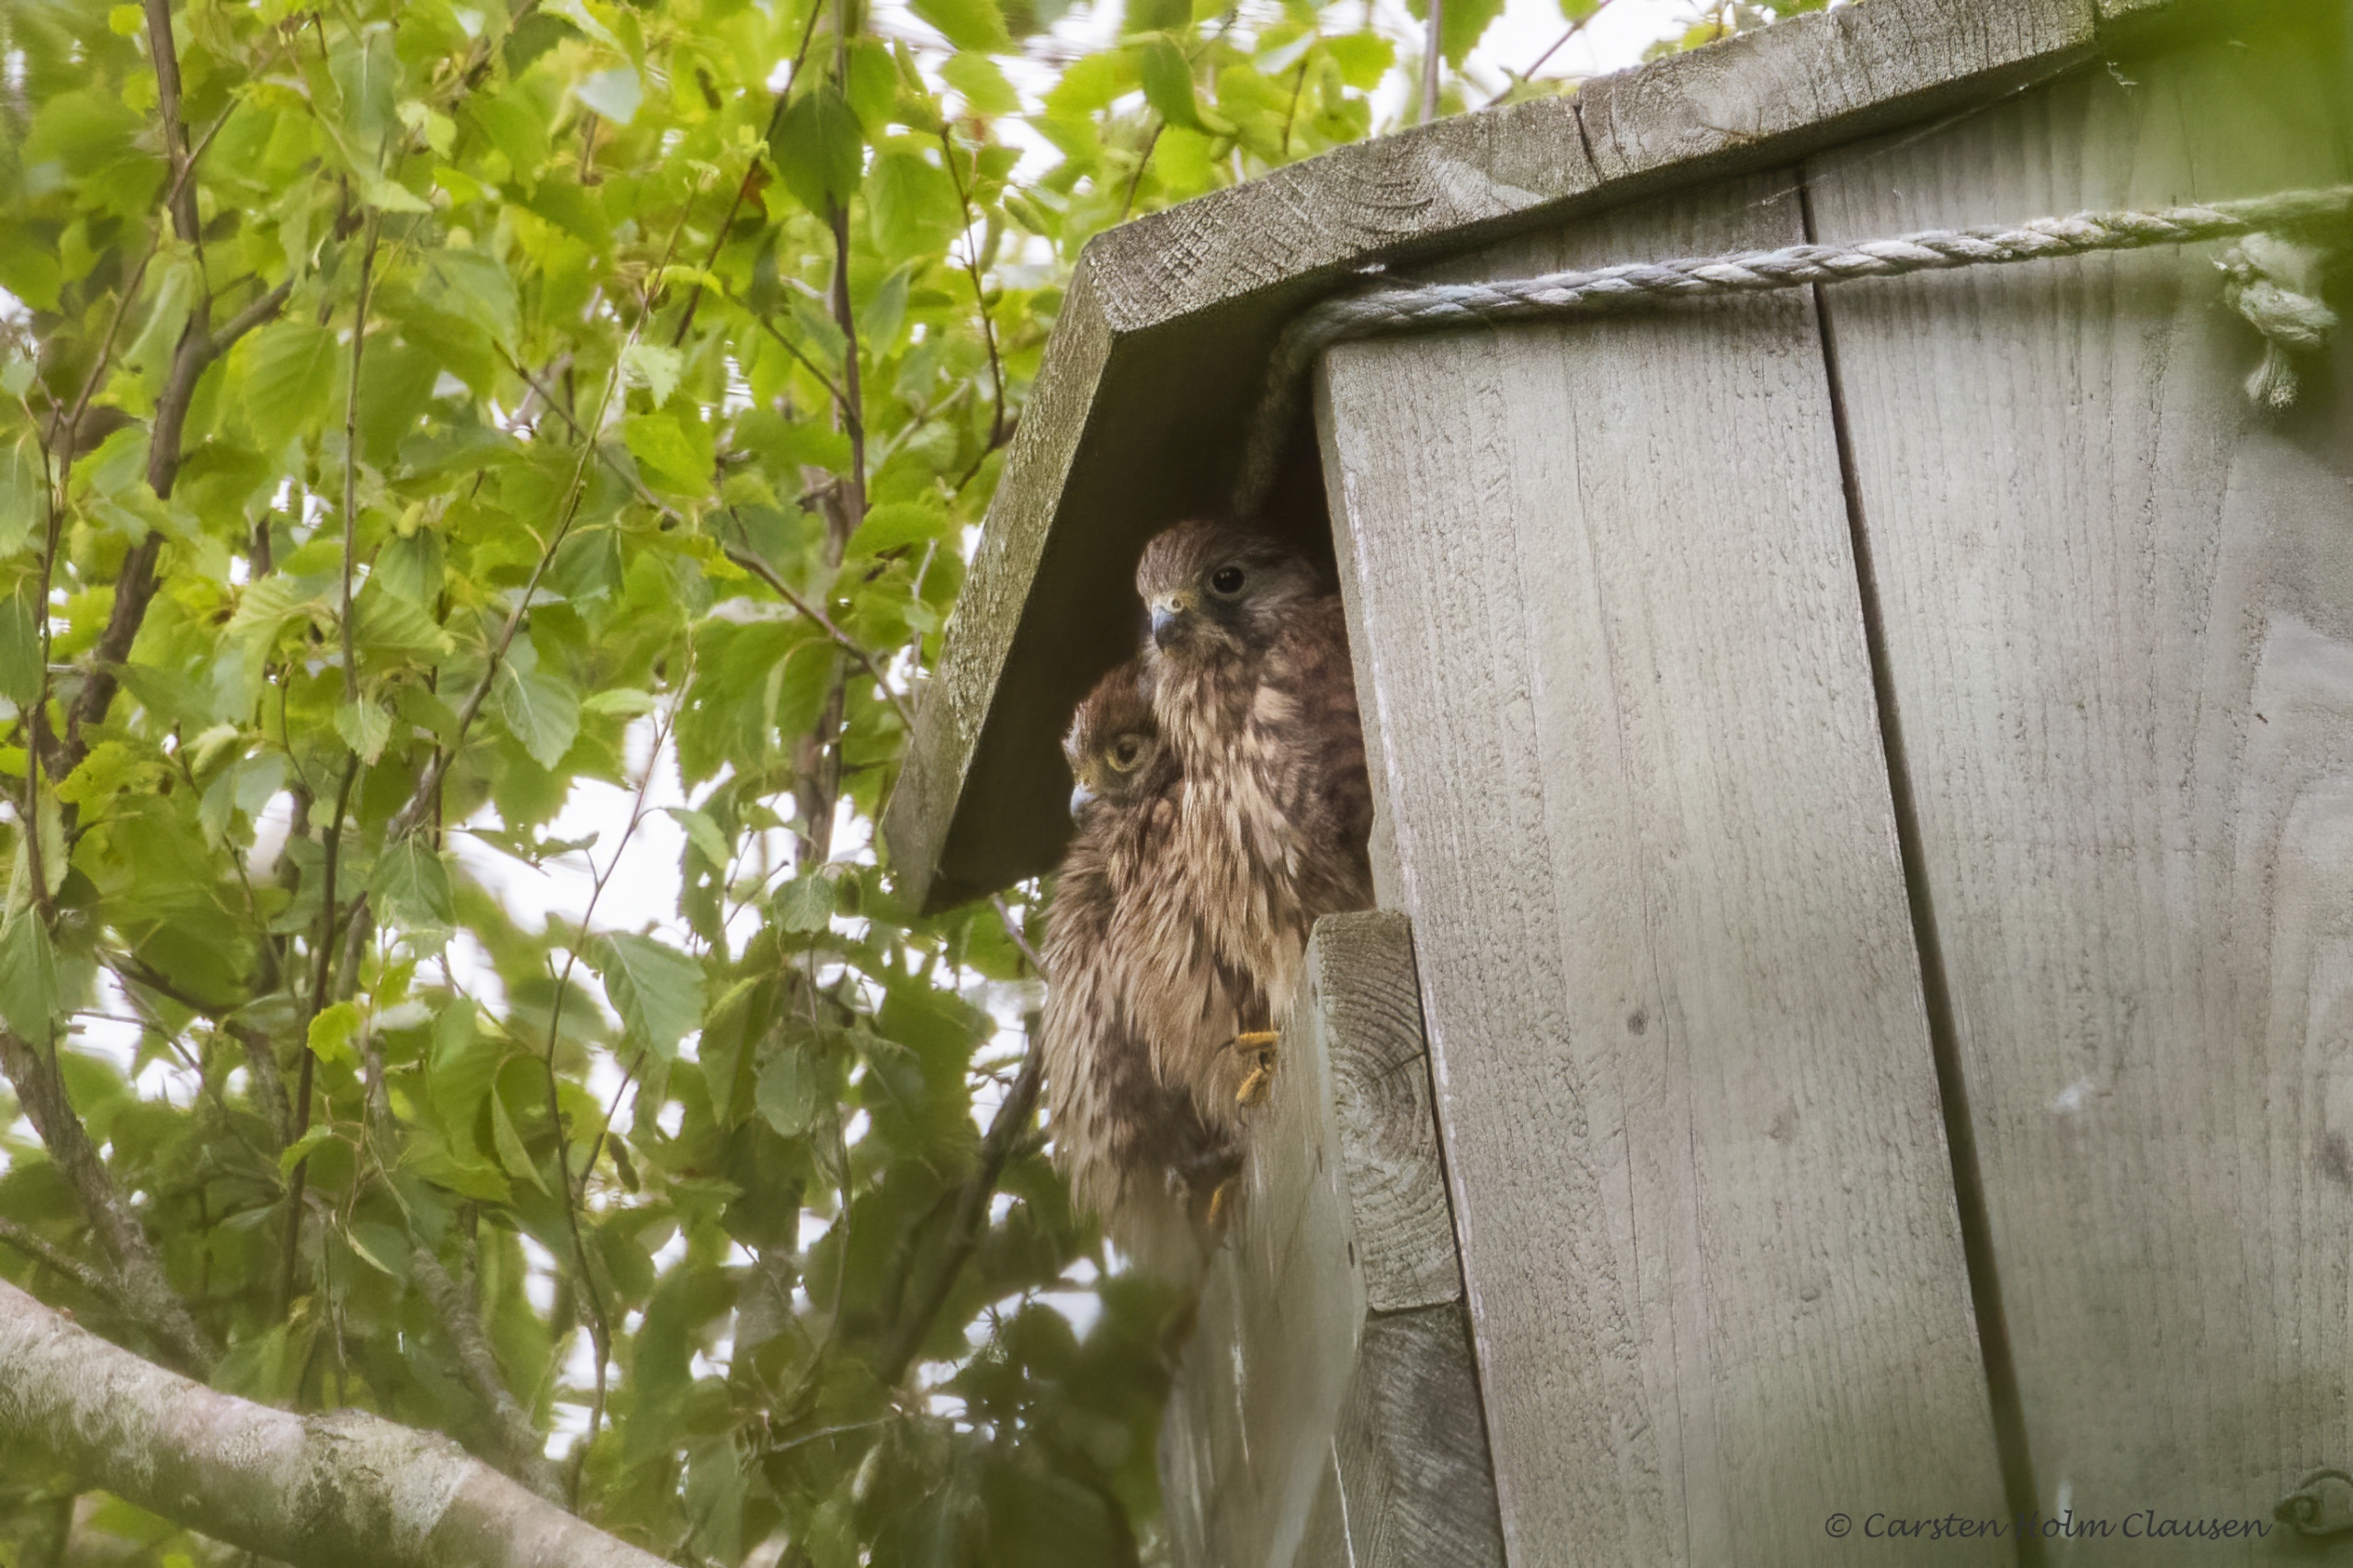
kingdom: Animalia
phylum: Chordata
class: Aves
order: Falconiformes
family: Falconidae
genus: Falco
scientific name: Falco tinnunculus
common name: Tårnfalk
